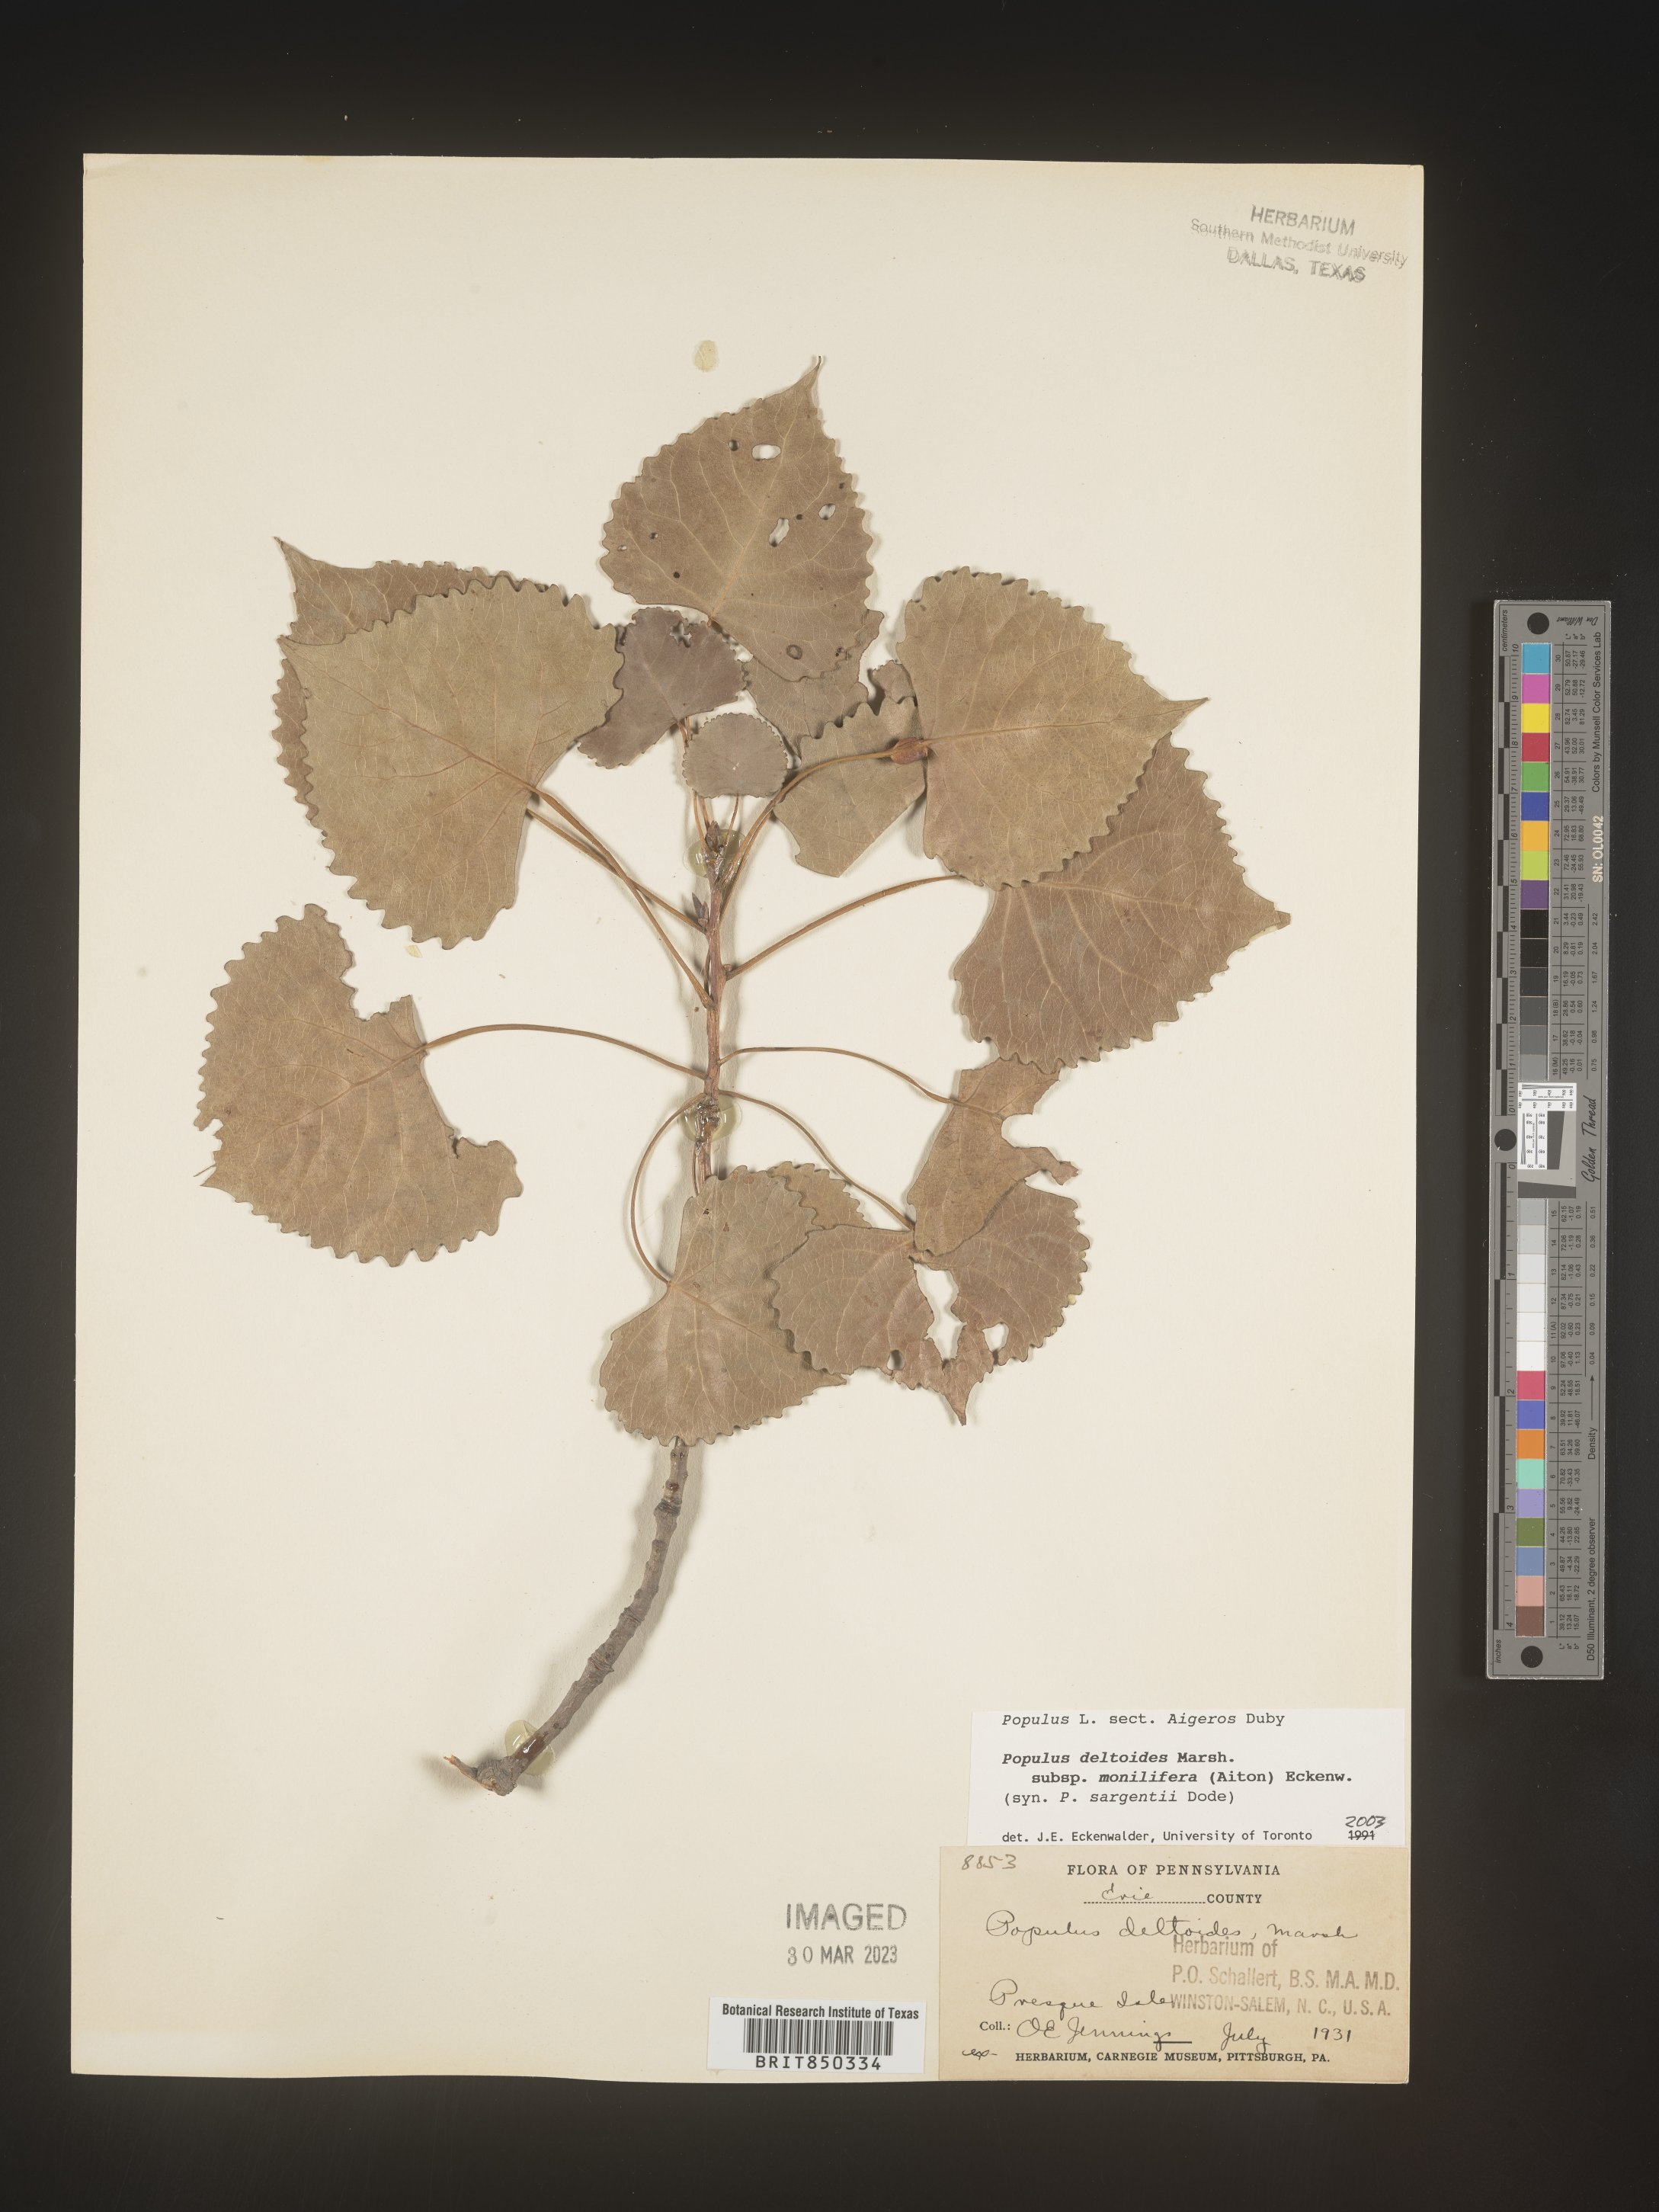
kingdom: Plantae
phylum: Tracheophyta
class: Magnoliopsida
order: Malpighiales
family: Salicaceae
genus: Populus
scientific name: Populus deltoides
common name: Eastern cottonwood
